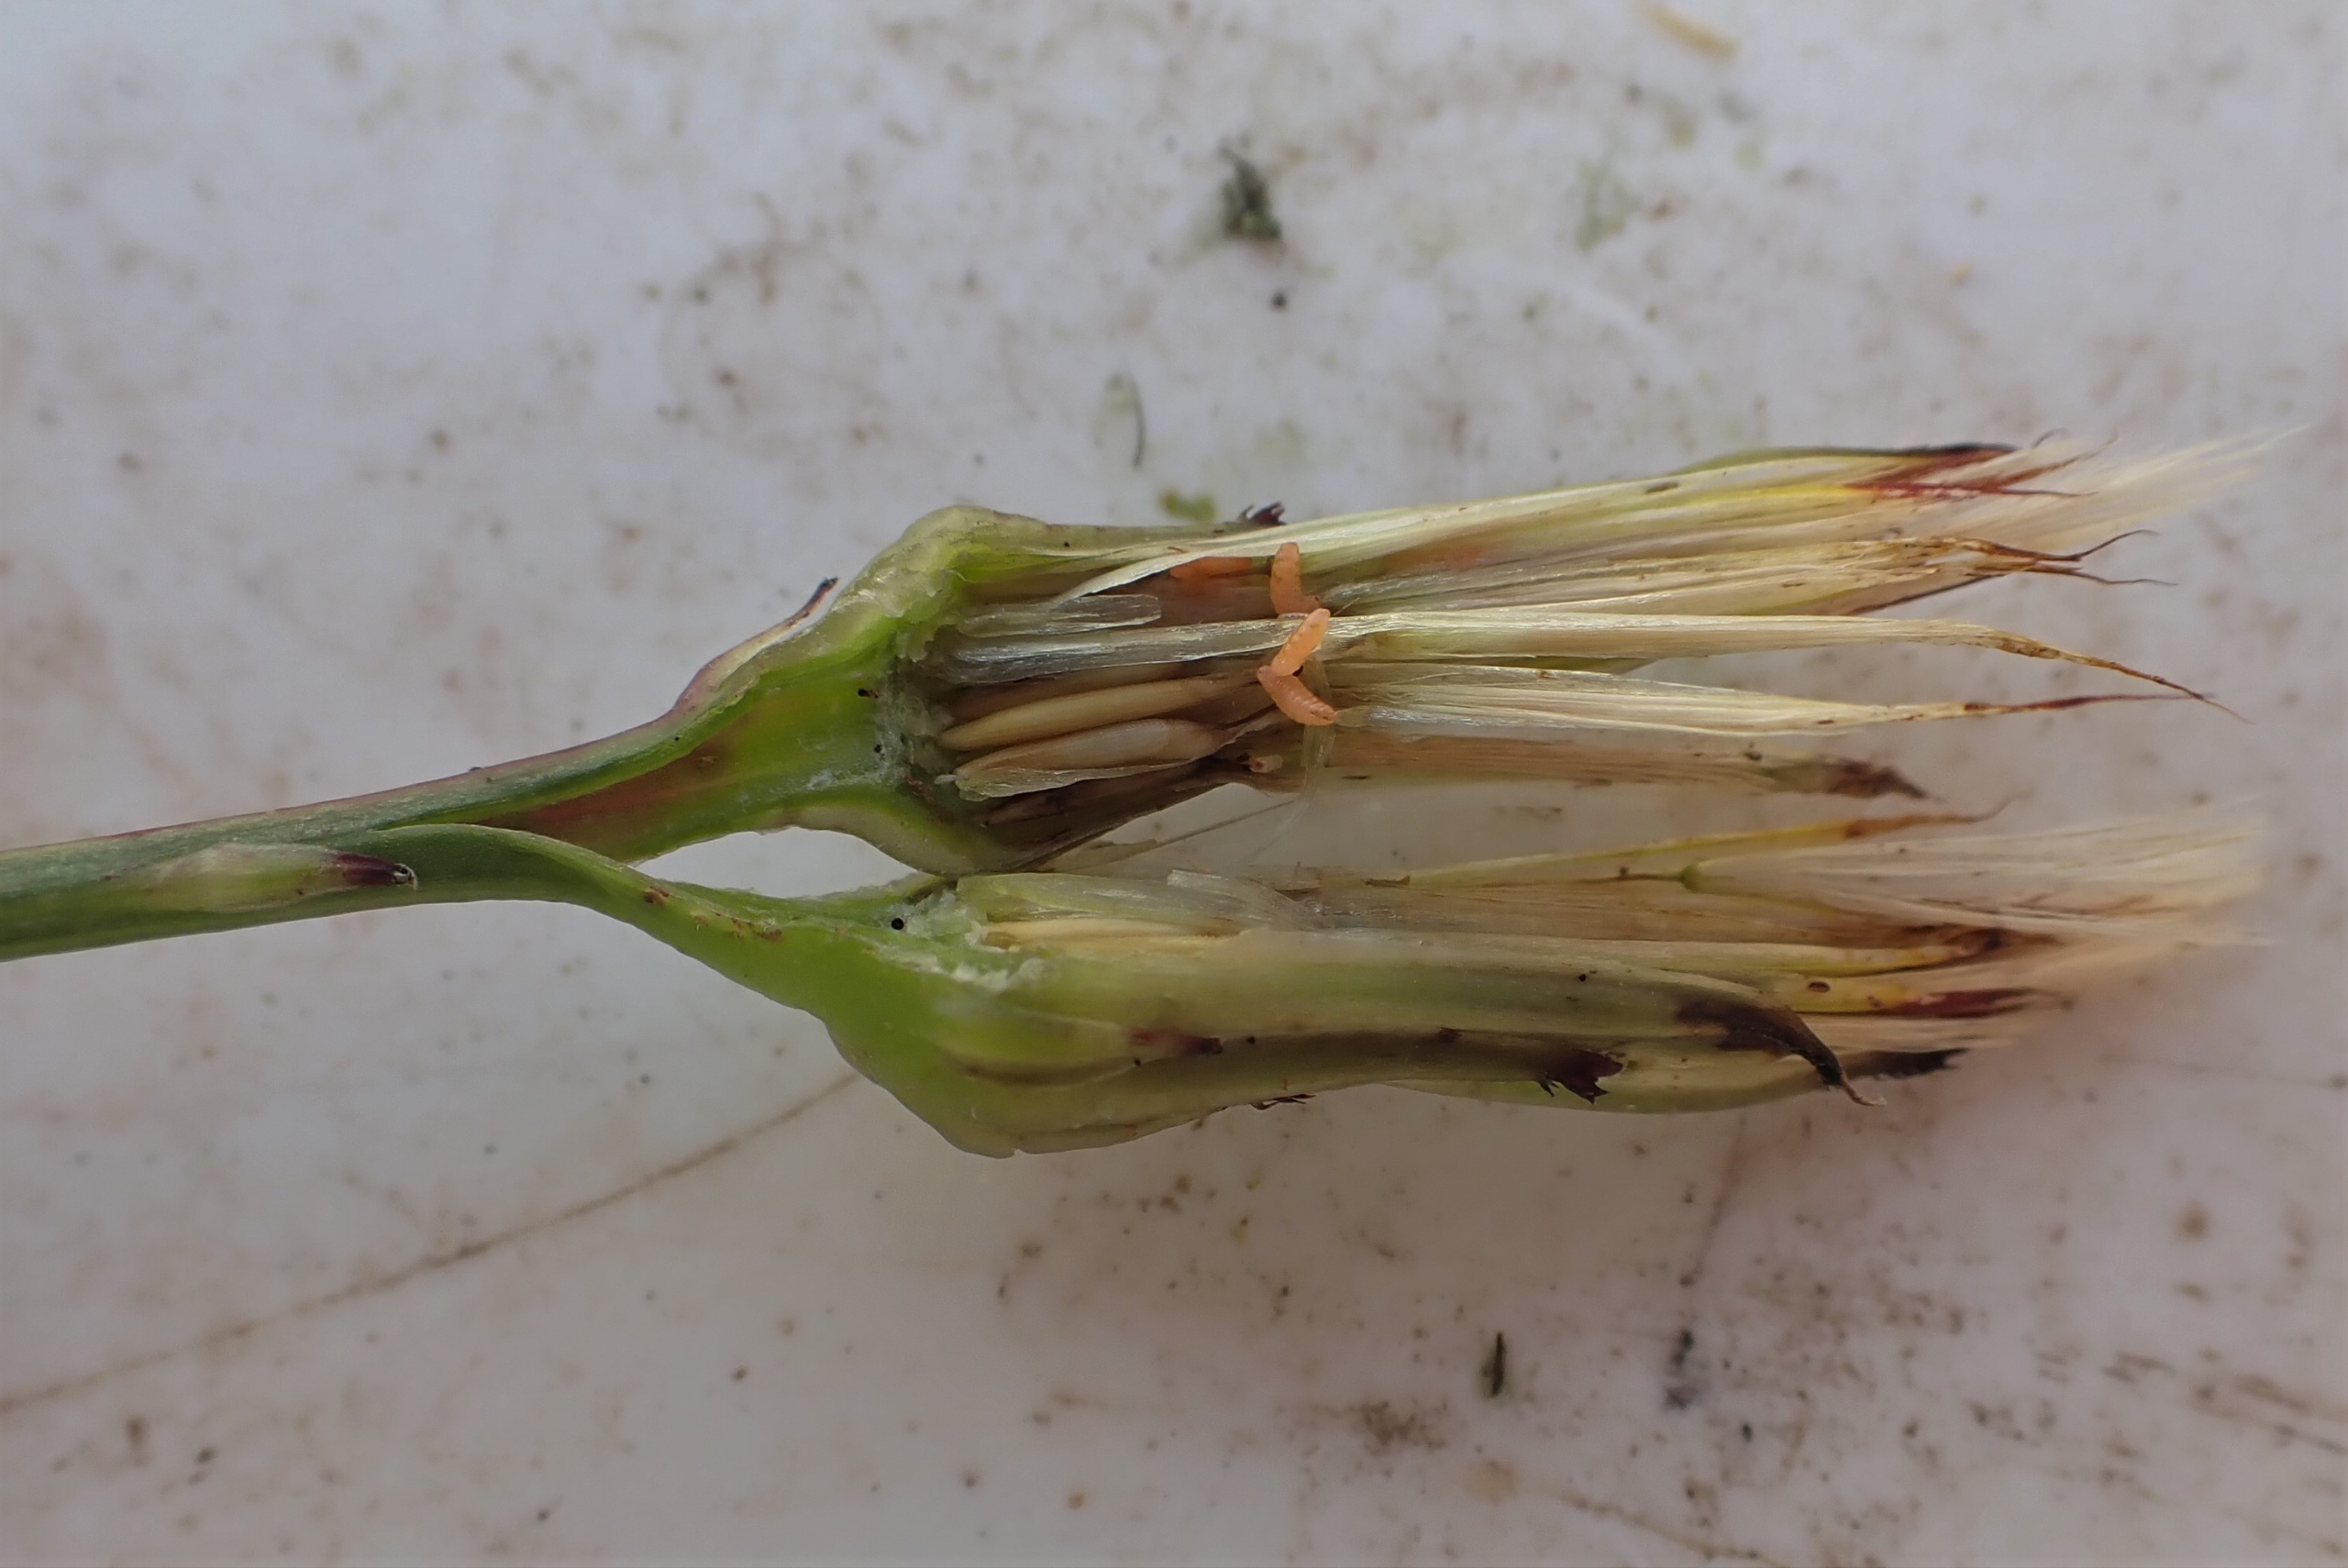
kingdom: Animalia
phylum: Arthropoda
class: Insecta
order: Diptera
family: Cecidomyiidae
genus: Jaapiella
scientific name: Jaapiella hypochoeridis
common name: Orange kongepengalmyg
